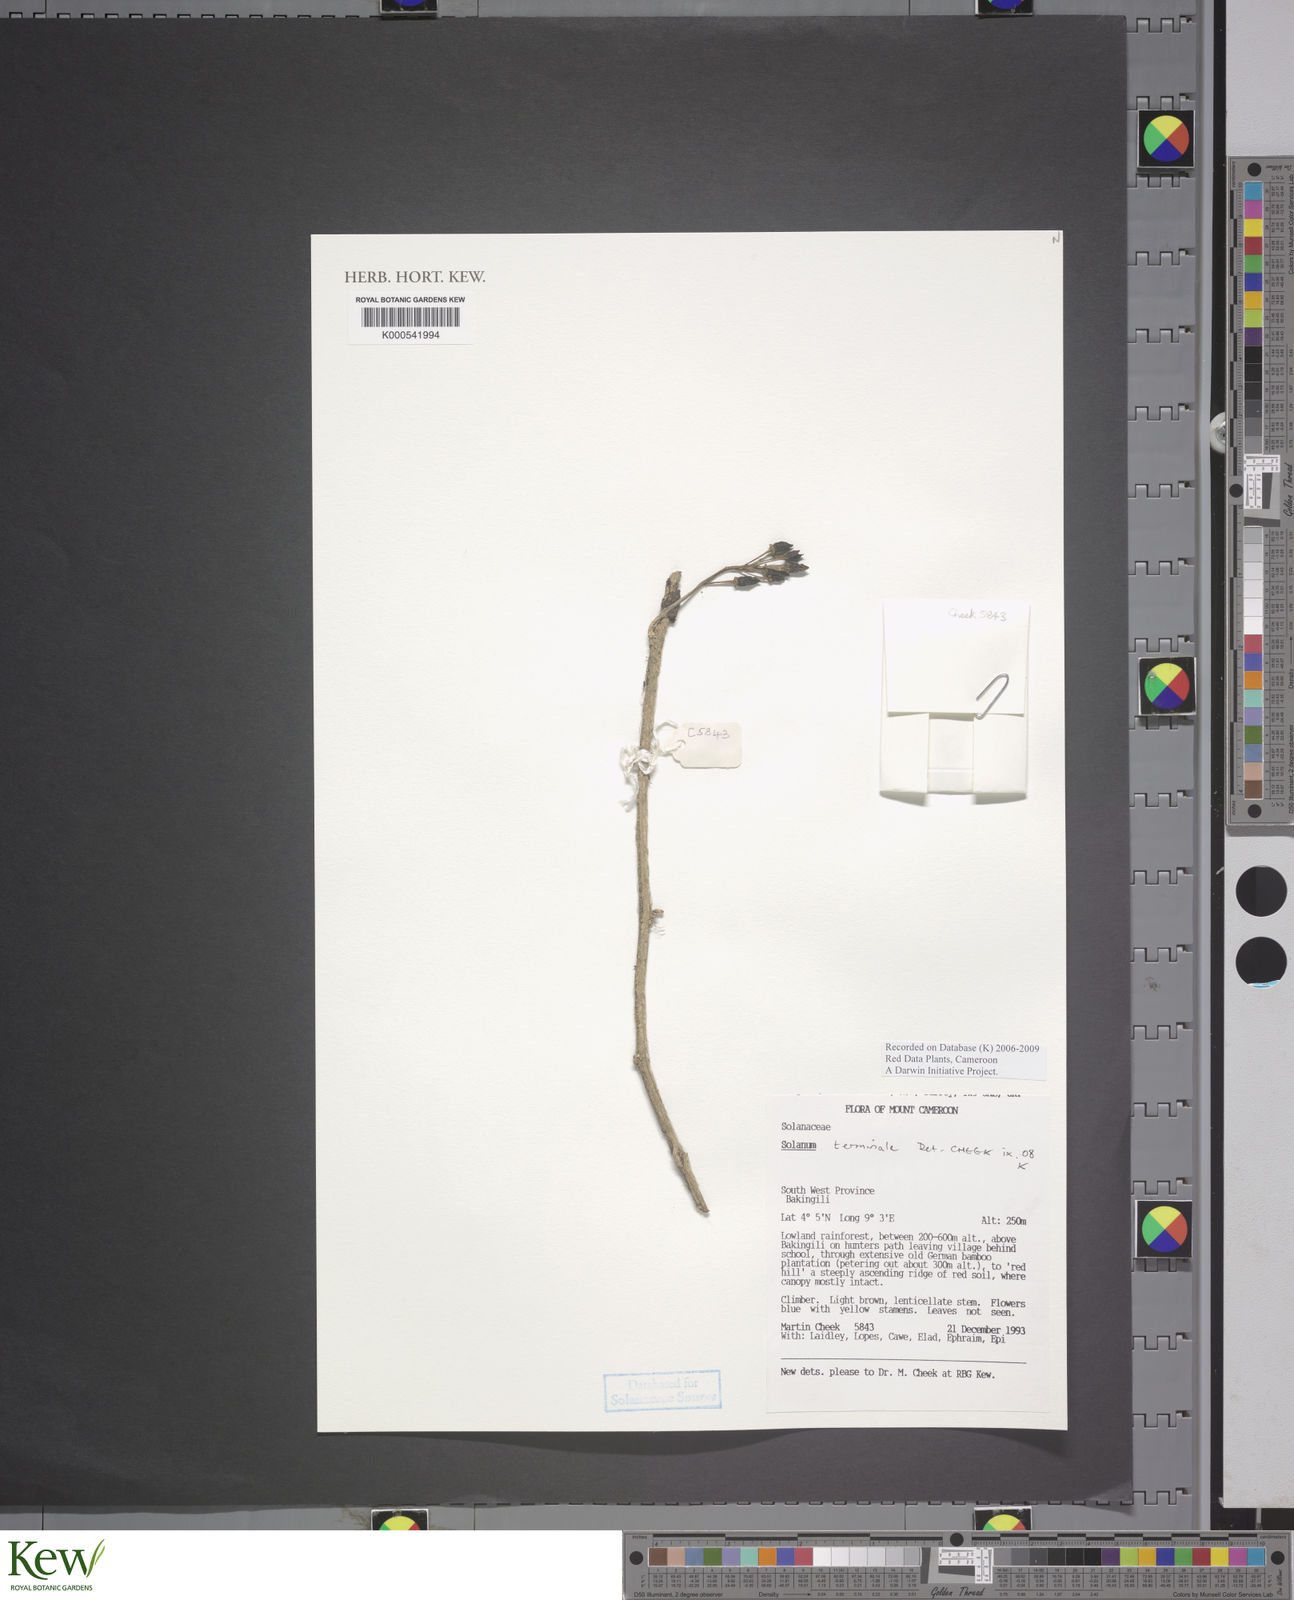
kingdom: Plantae
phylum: Tracheophyta
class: Magnoliopsida
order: Solanales
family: Solanaceae
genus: Solanum
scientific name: Solanum terminale
